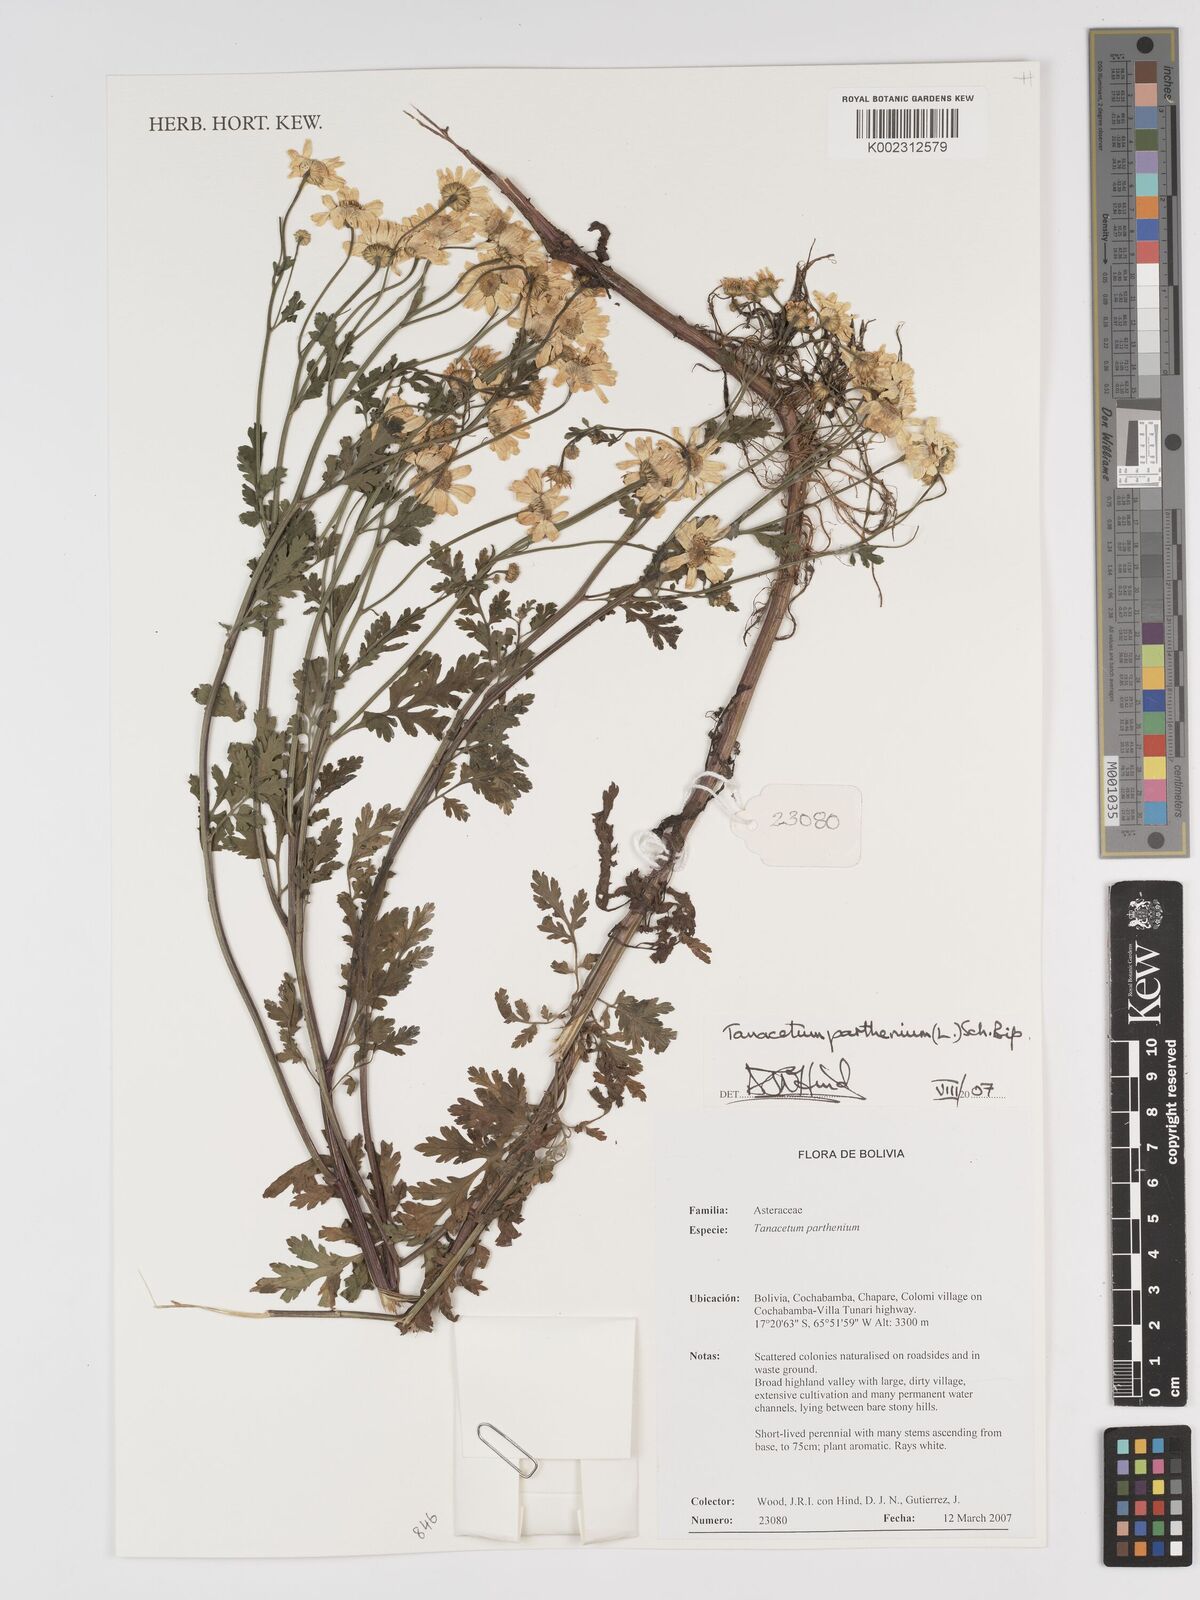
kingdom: Plantae
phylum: Tracheophyta
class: Magnoliopsida
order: Asterales
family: Asteraceae
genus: Tanacetum
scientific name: Tanacetum parthenium
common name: Feverfew
